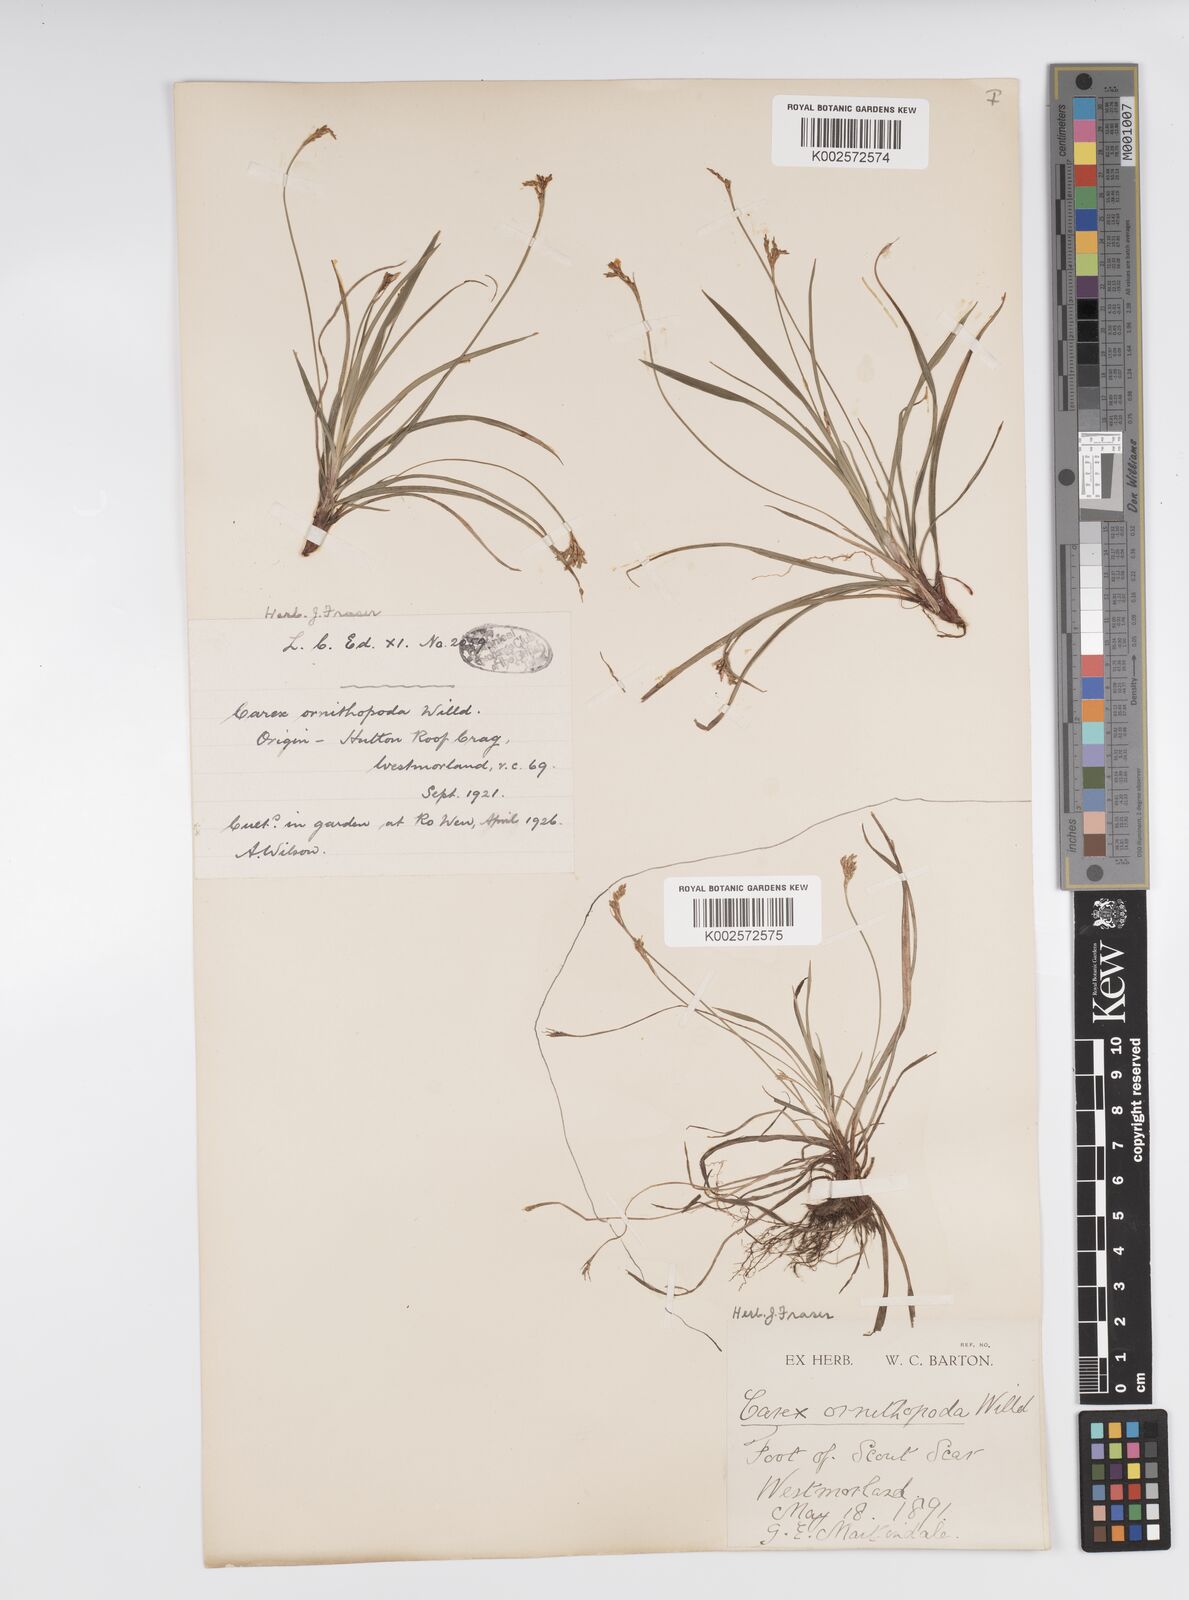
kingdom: Plantae
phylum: Tracheophyta
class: Liliopsida
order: Poales
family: Cyperaceae
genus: Carex
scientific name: Carex ornithopoda
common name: Bird's-foot sedge
